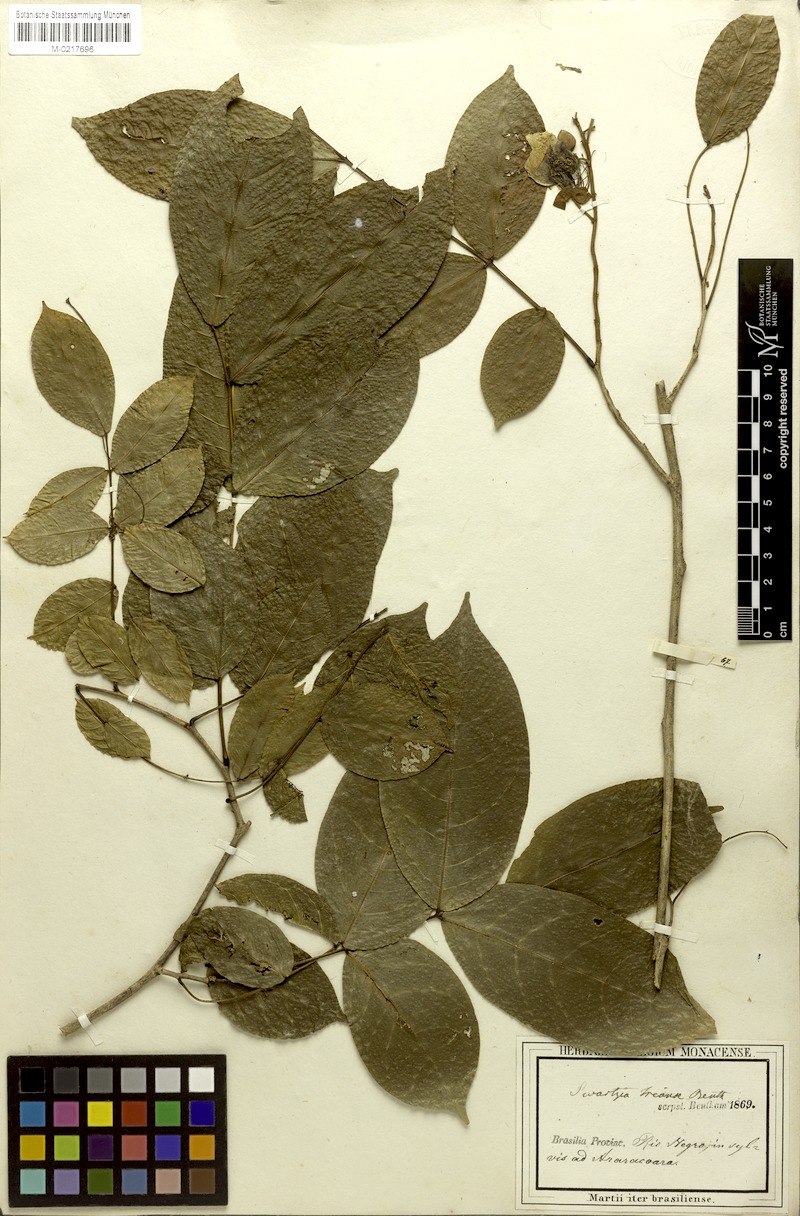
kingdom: Plantae
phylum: Tracheophyta
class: Magnoliopsida
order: Fabales
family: Fabaceae
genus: Swartzia
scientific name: Swartzia trianae
